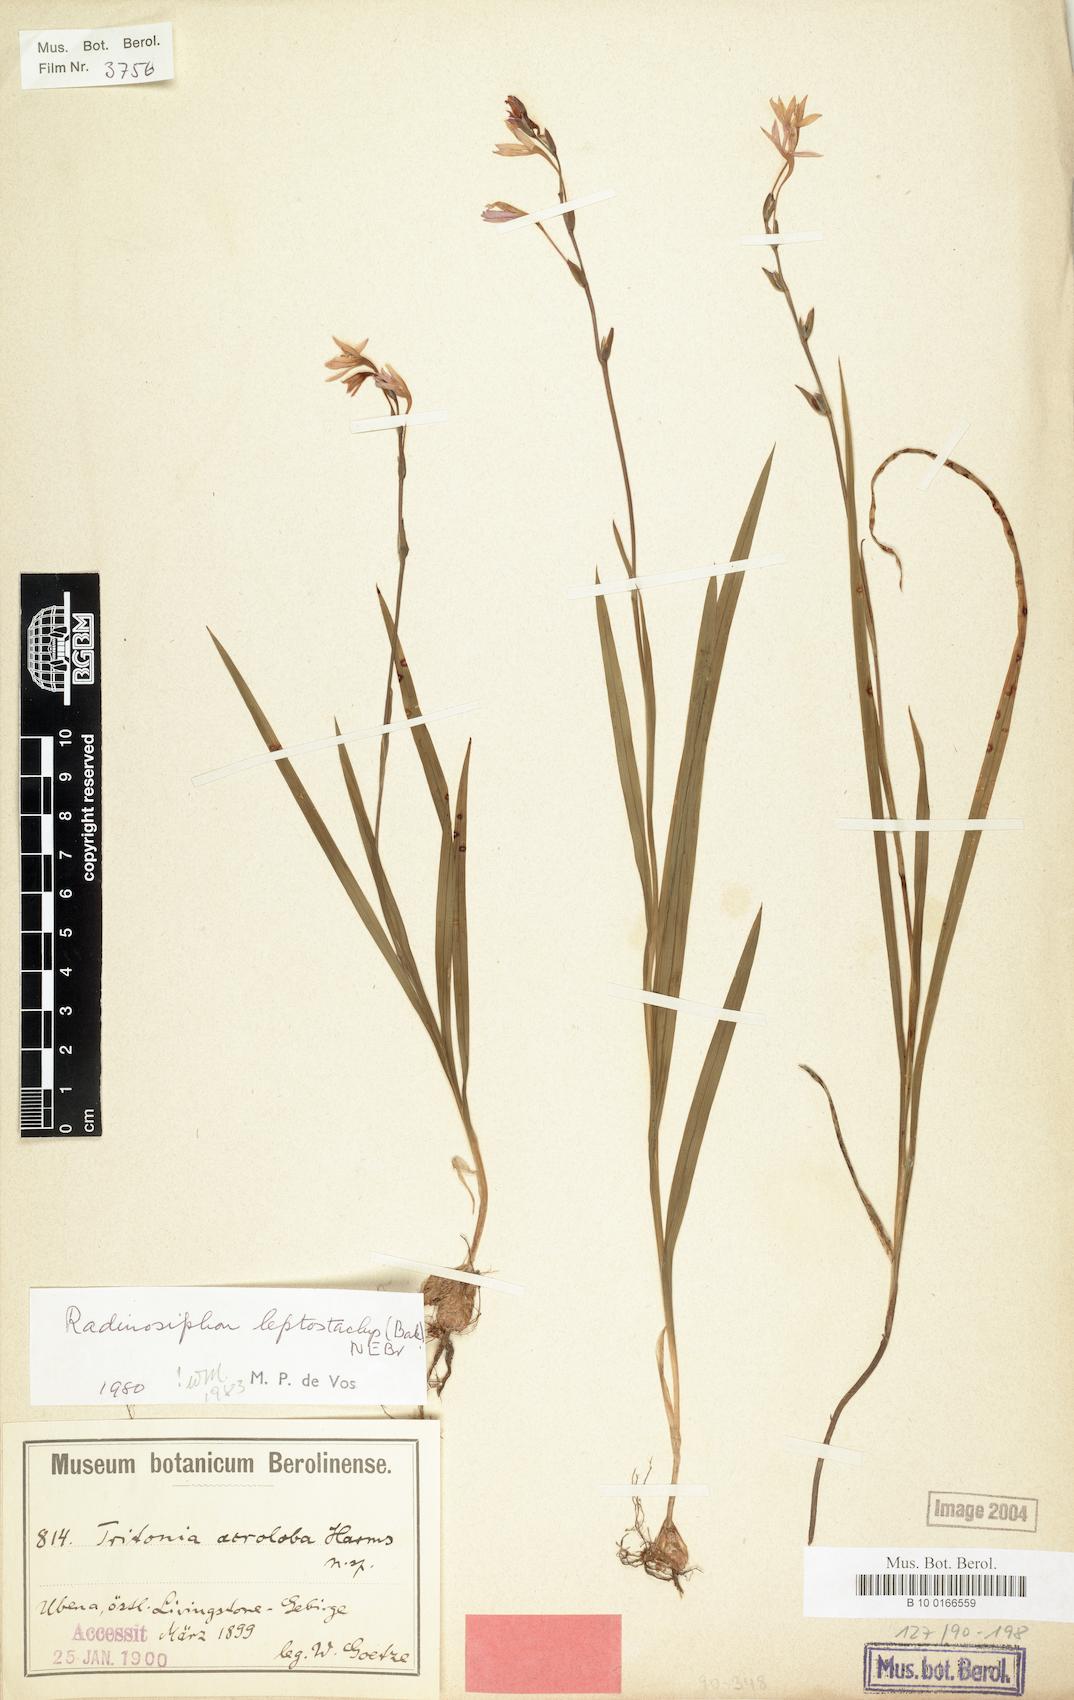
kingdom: Plantae
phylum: Tracheophyta
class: Liliopsida
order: Asparagales
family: Iridaceae
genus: Radinosiphon
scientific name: Radinosiphon leptostachya
